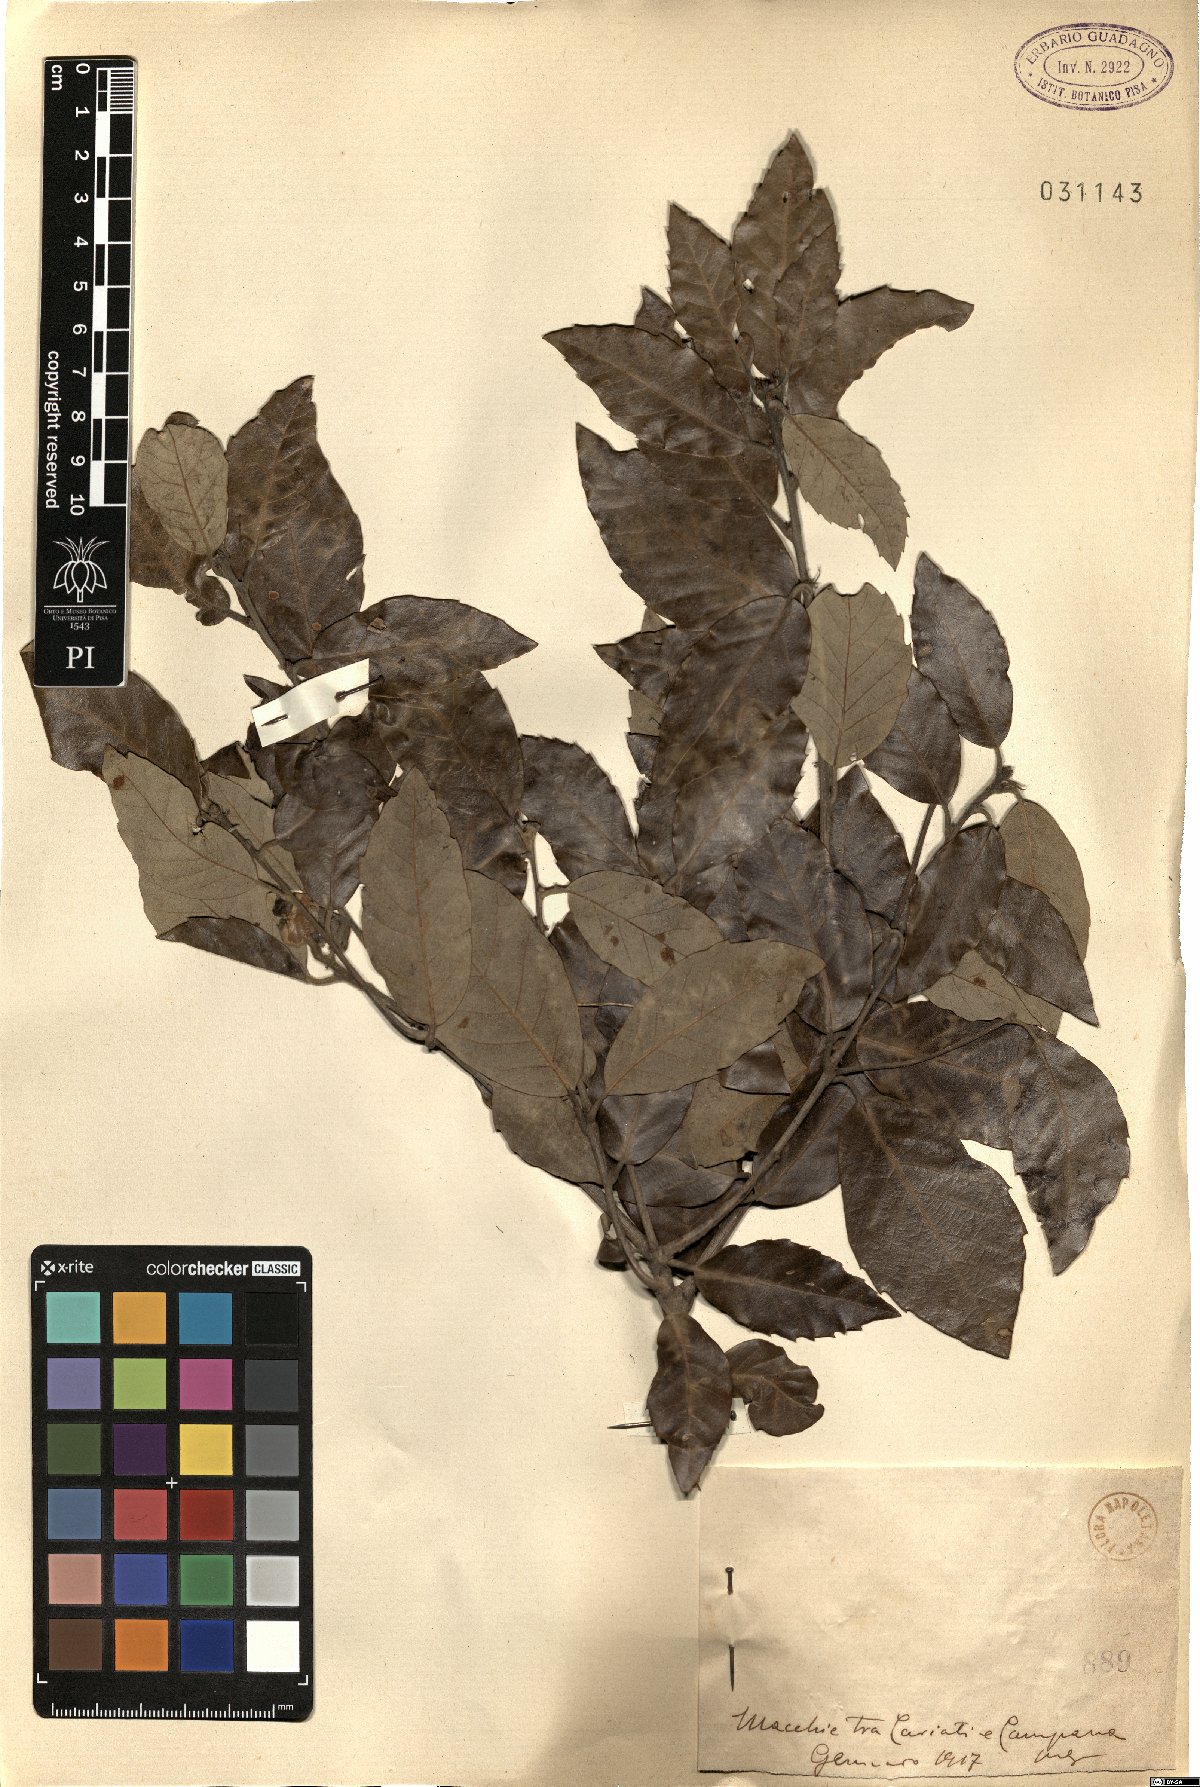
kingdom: Plantae
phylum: Tracheophyta
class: Magnoliopsida
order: Fagales
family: Fagaceae
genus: Quercus
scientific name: Quercus
